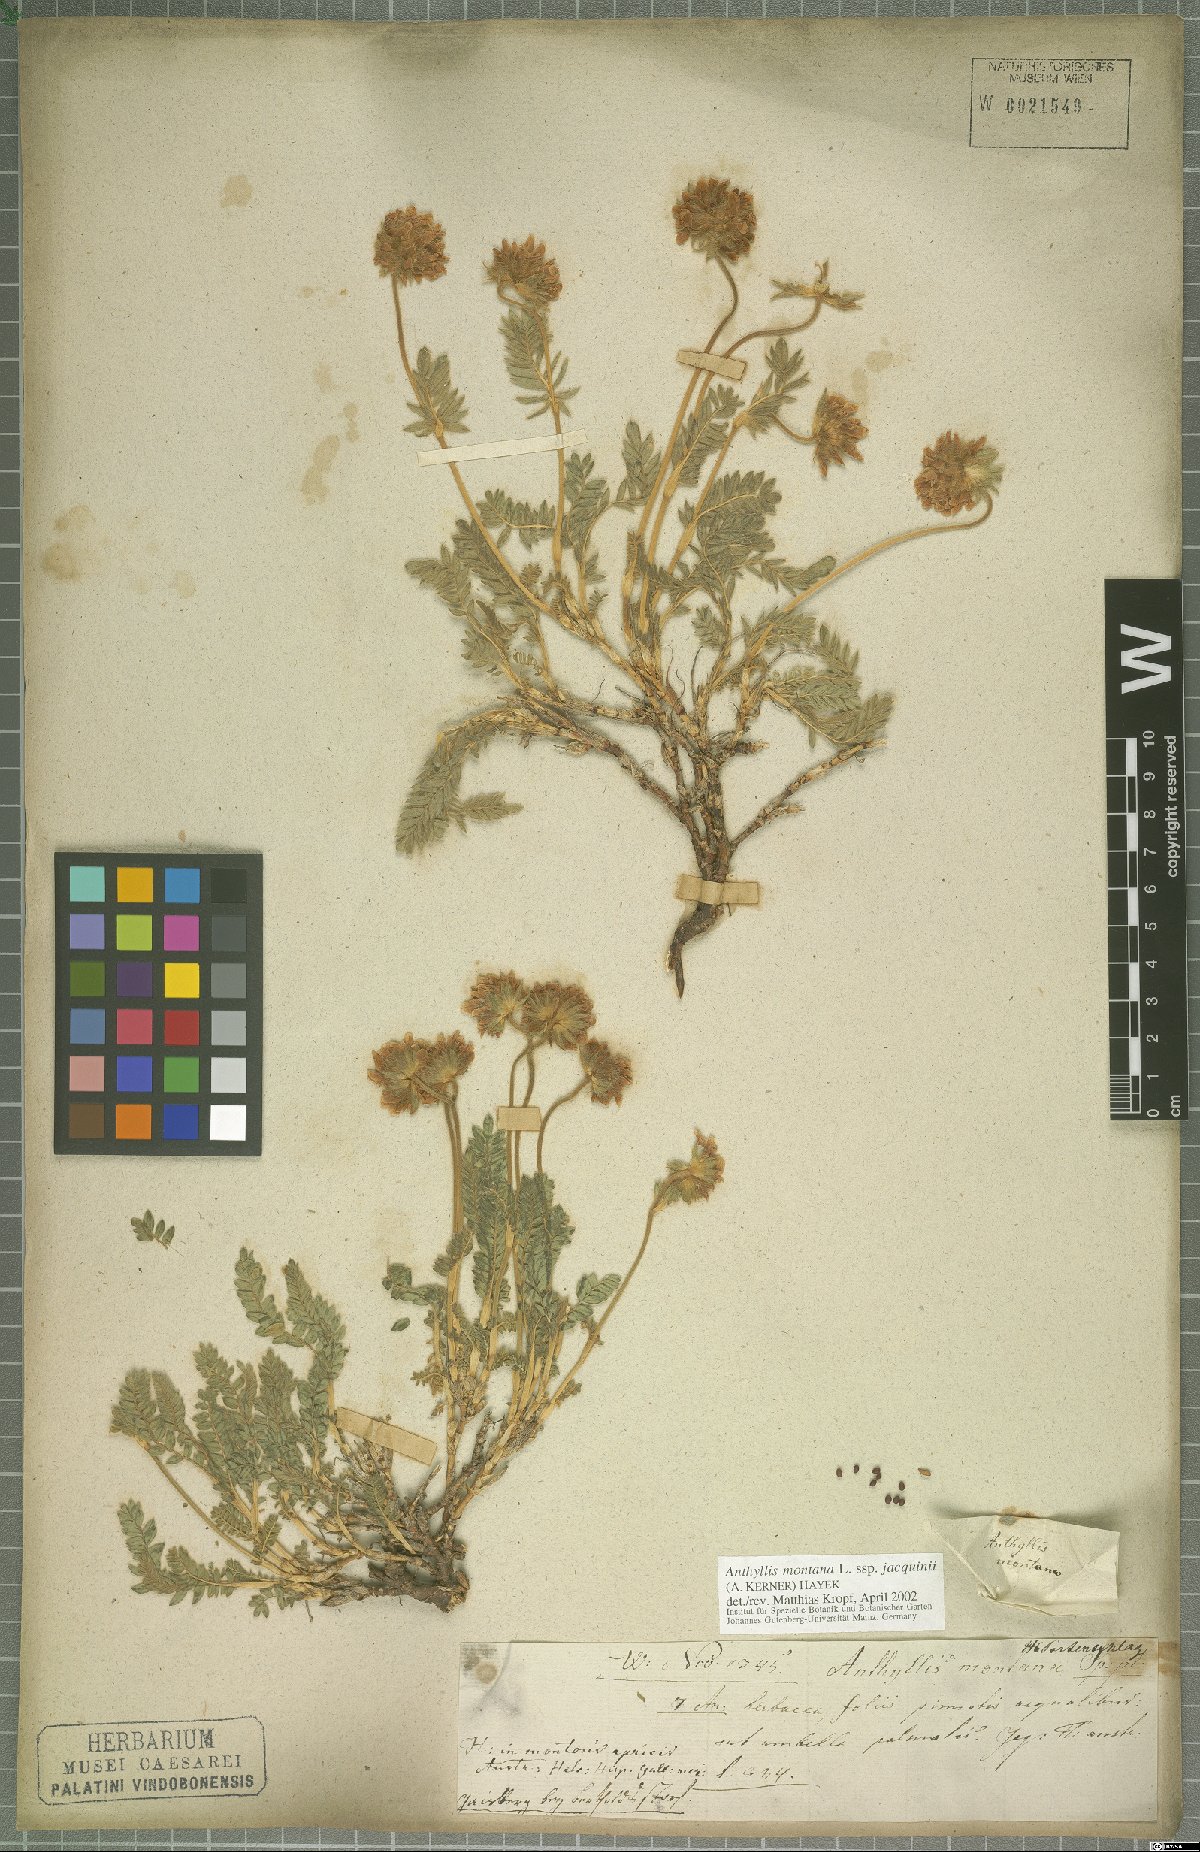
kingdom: Plantae
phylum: Tracheophyta
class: Magnoliopsida
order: Fabales
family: Fabaceae
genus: Anthyllis
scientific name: Anthyllis montana
